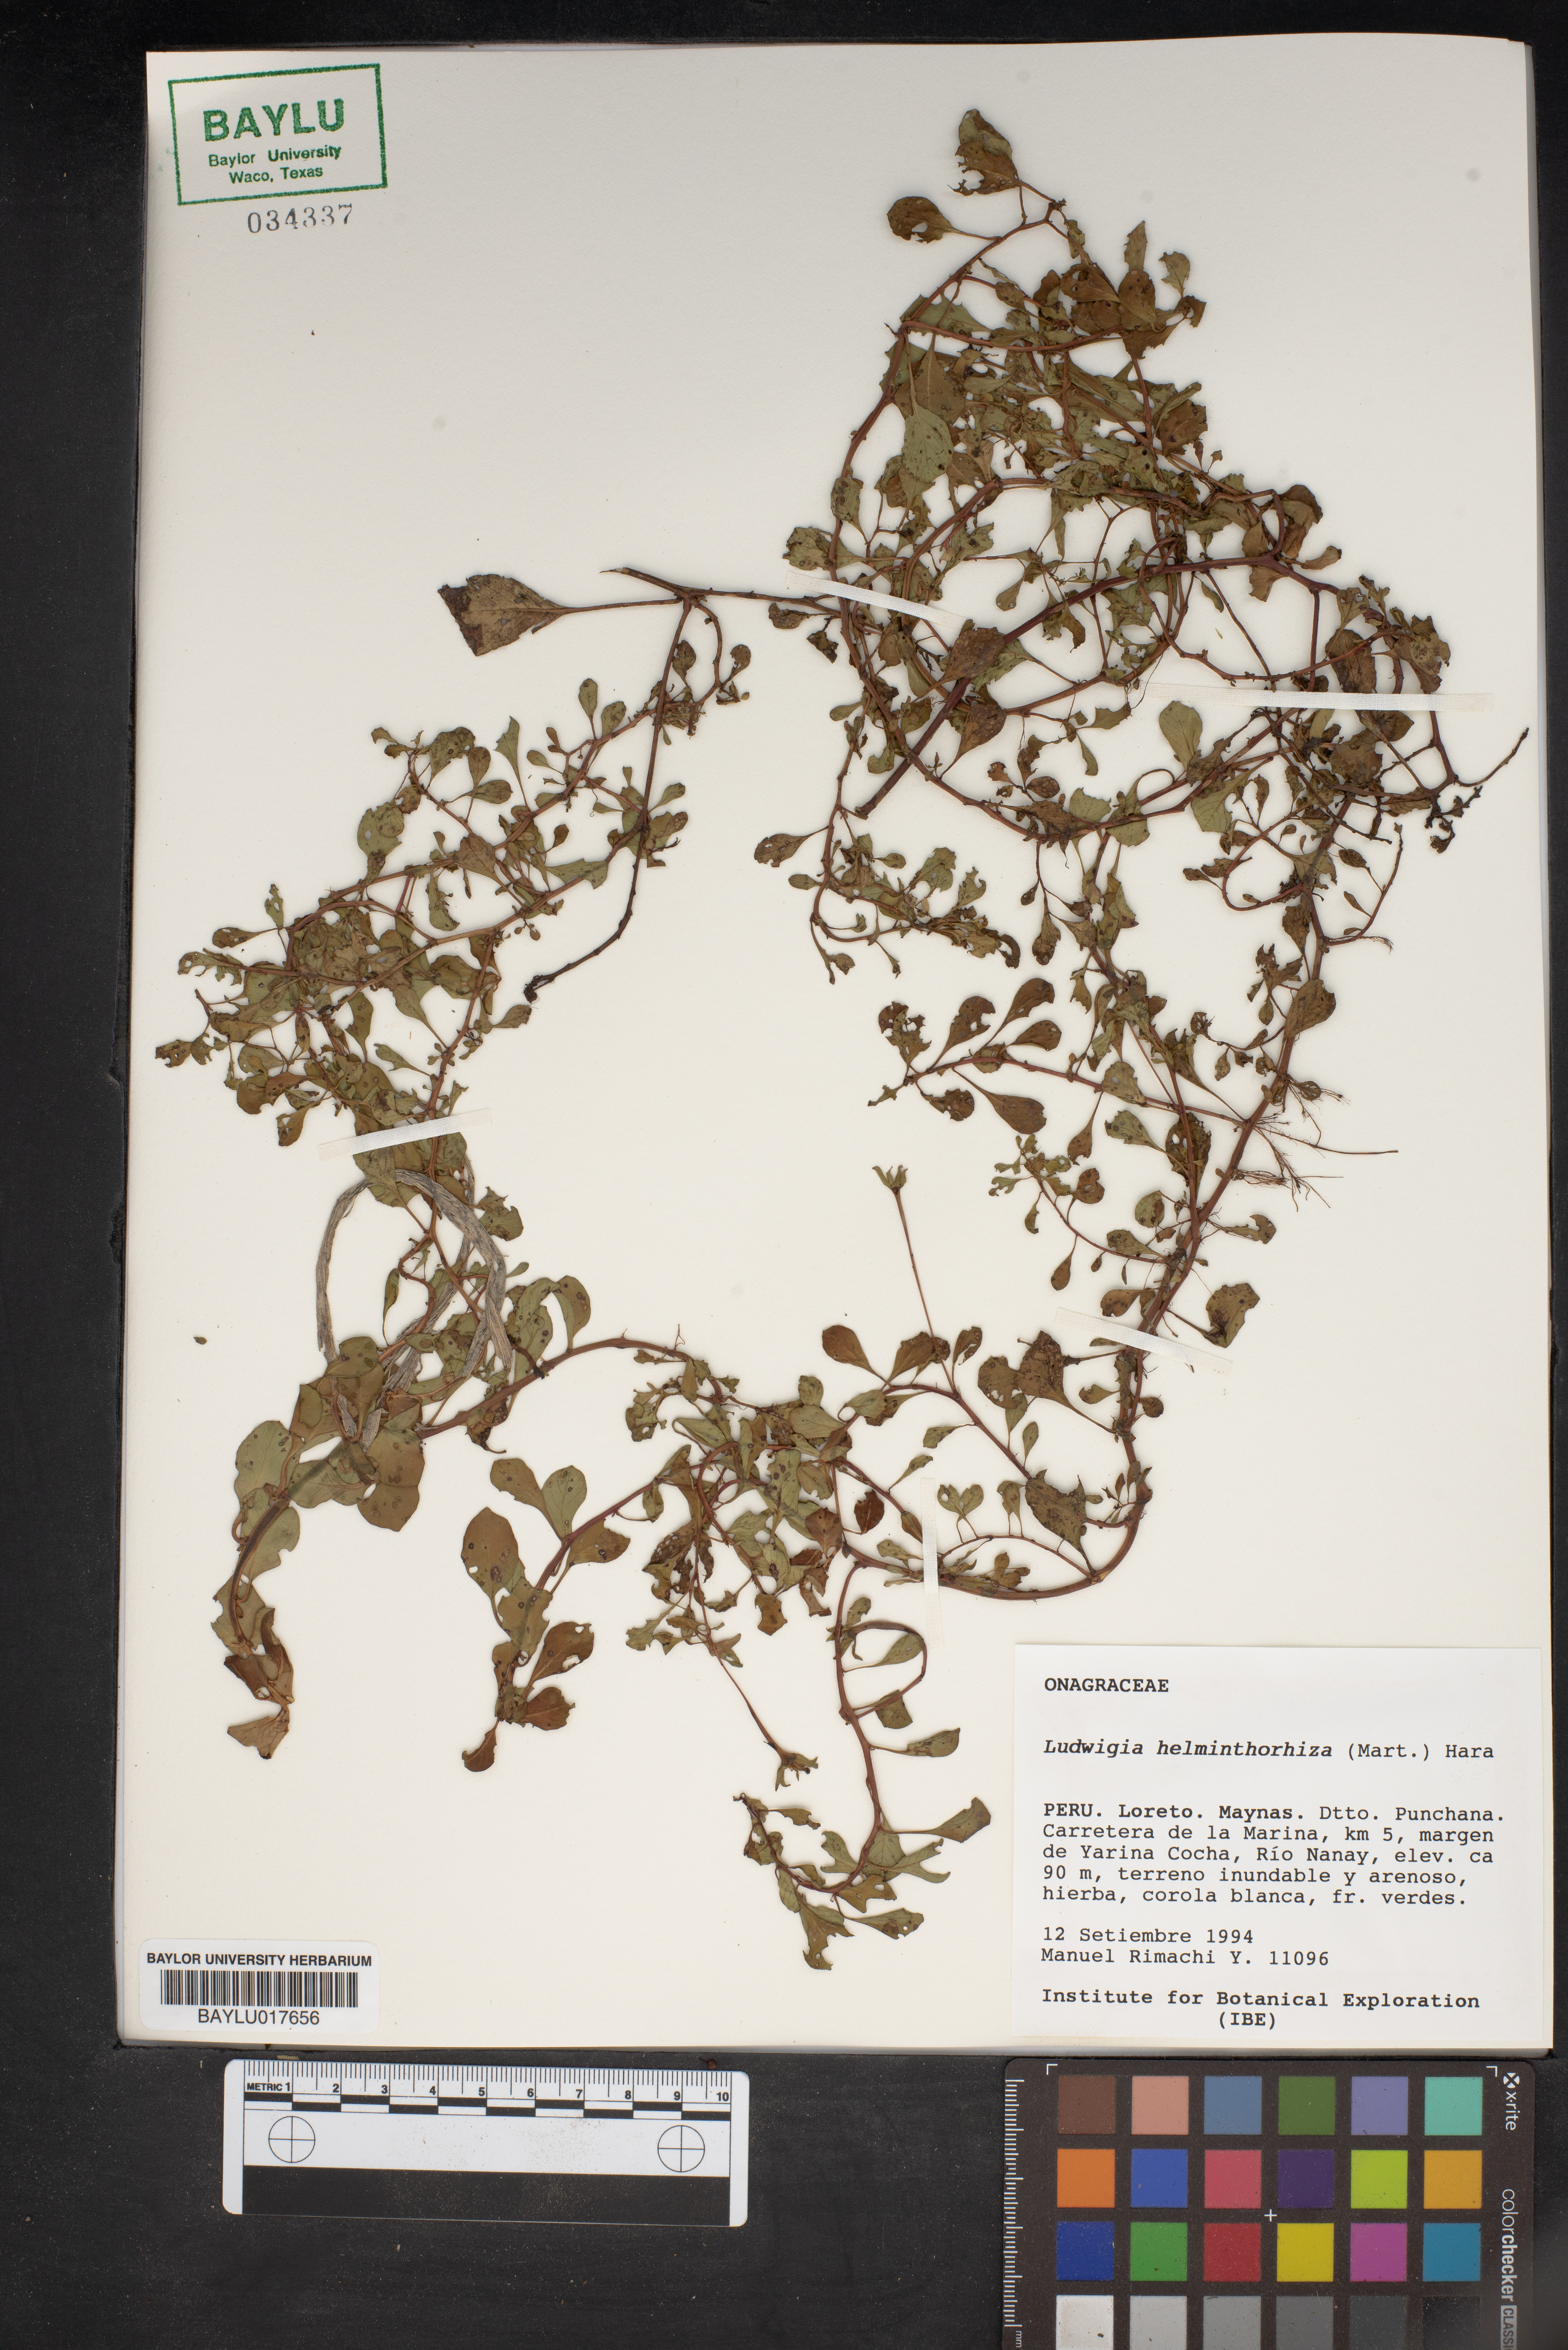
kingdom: Plantae
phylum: Tracheophyta
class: Magnoliopsida
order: Myrtales
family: Onagraceae
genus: Ludwigia
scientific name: Ludwigia helminthorrhiza
